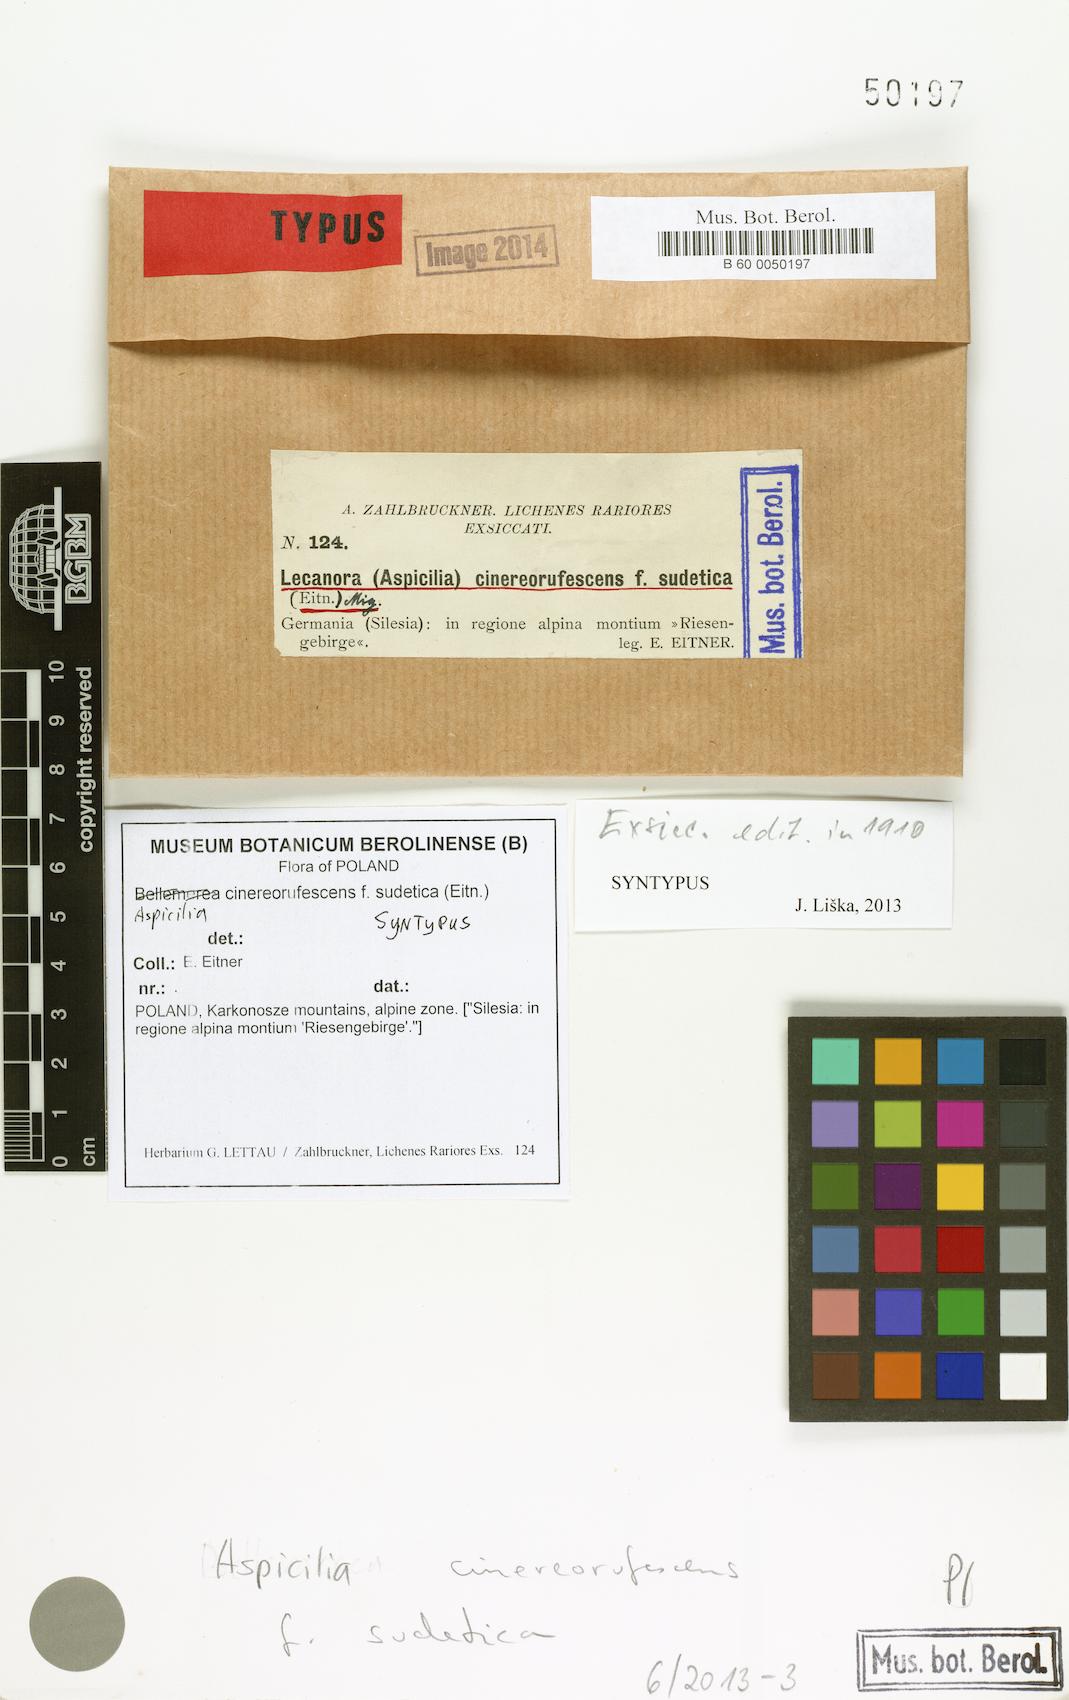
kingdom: Fungi
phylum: Ascomycota
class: Lecanoromycetes
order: Lecideales
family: Lecideaceae
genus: Bellemerea
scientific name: Bellemerea cinereorufescens
